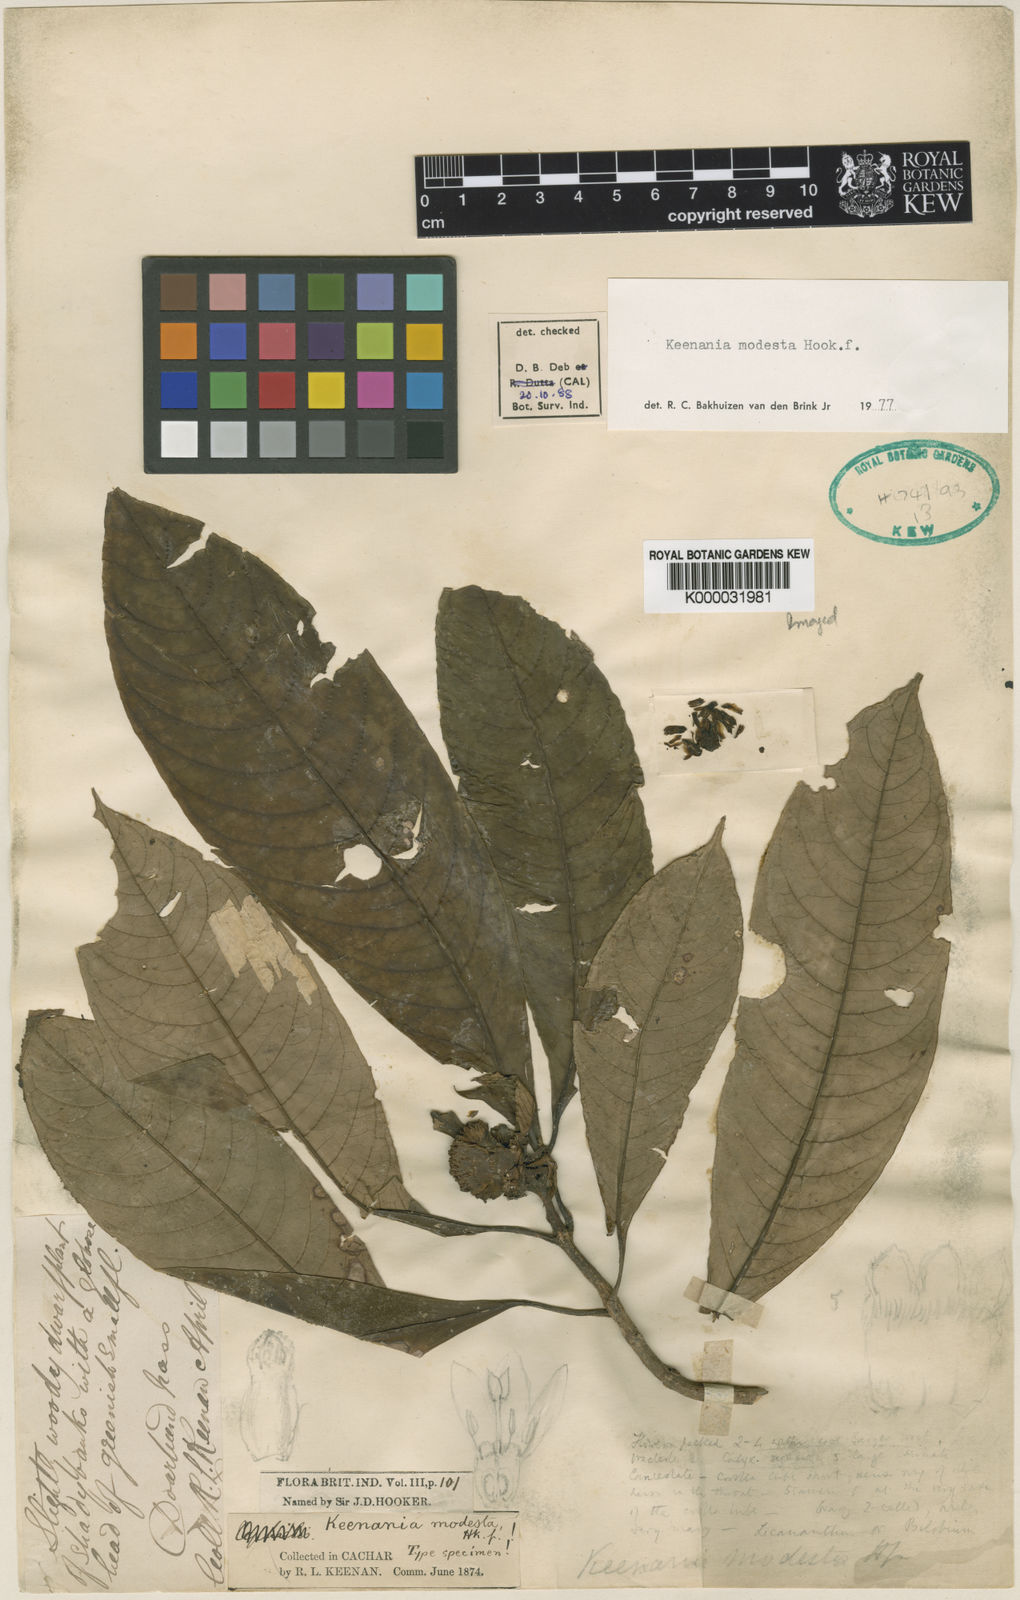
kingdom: Plantae
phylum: Tracheophyta
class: Magnoliopsida
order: Gentianales
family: Rubiaceae
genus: Ophiorrhiza
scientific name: Ophiorrhiza modesta
